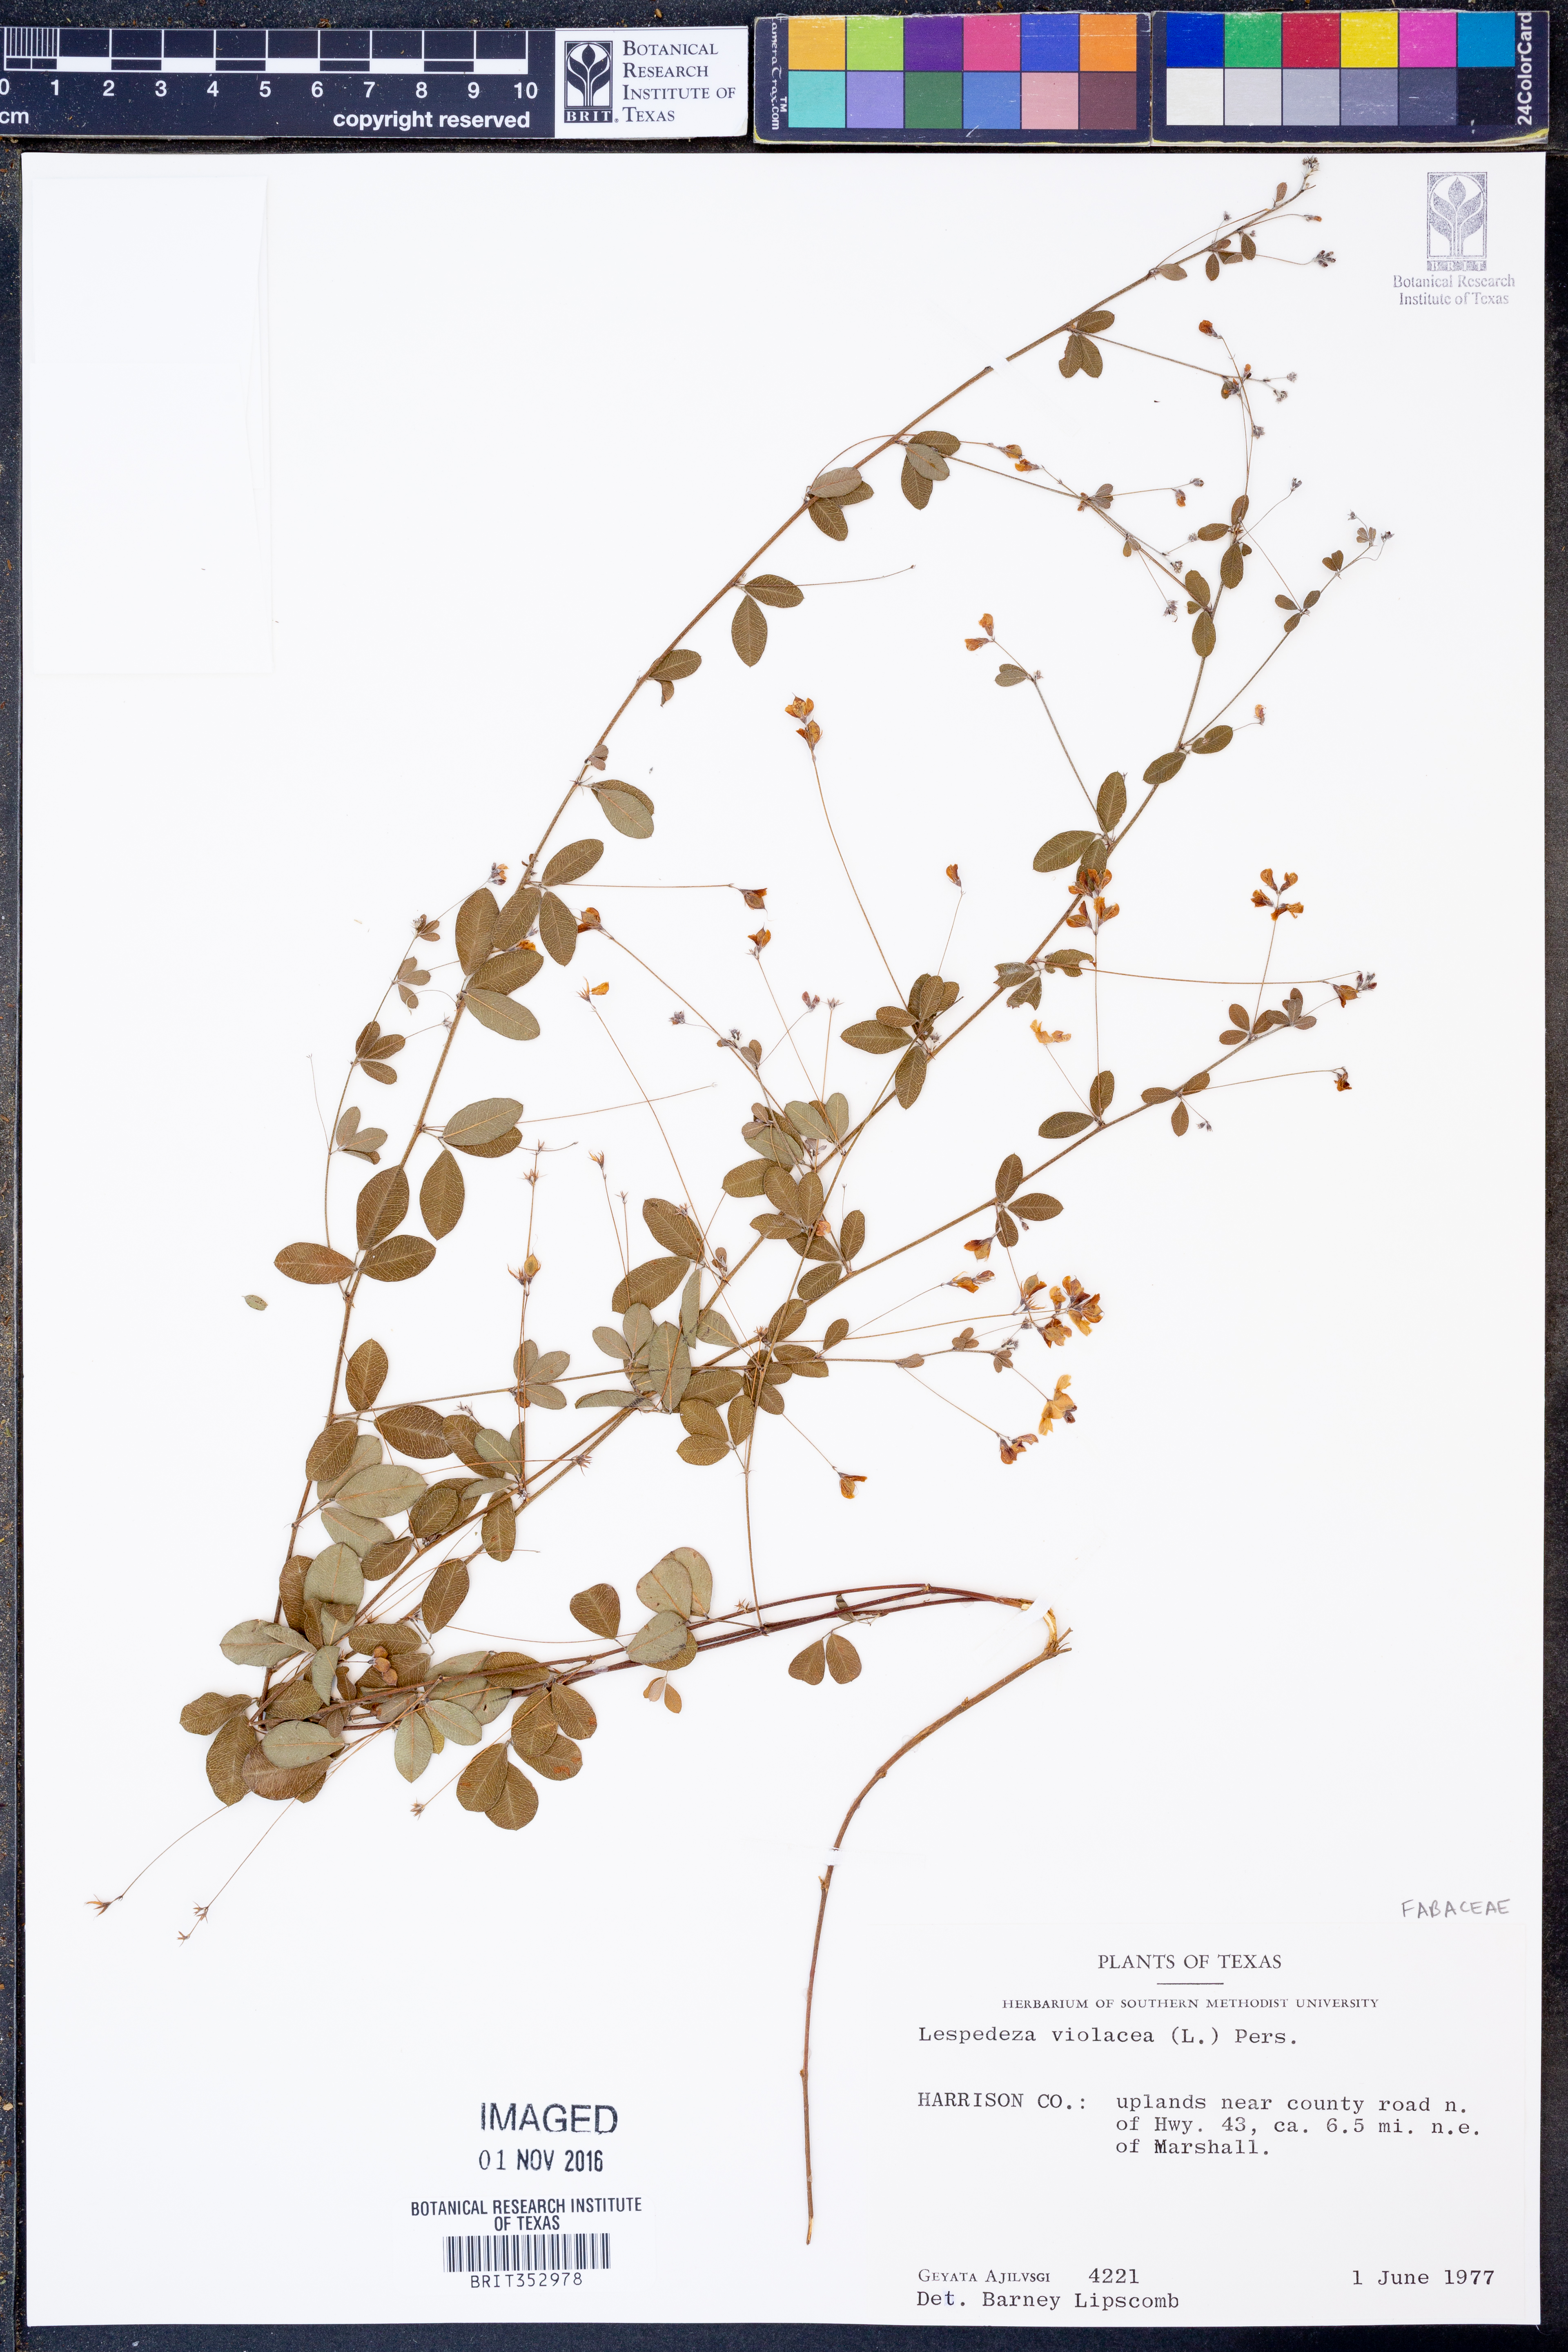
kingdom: Plantae
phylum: Tracheophyta
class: Magnoliopsida
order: Fabales
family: Fabaceae
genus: Lespedeza
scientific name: Lespedeza violacea
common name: Wand bush-clover
